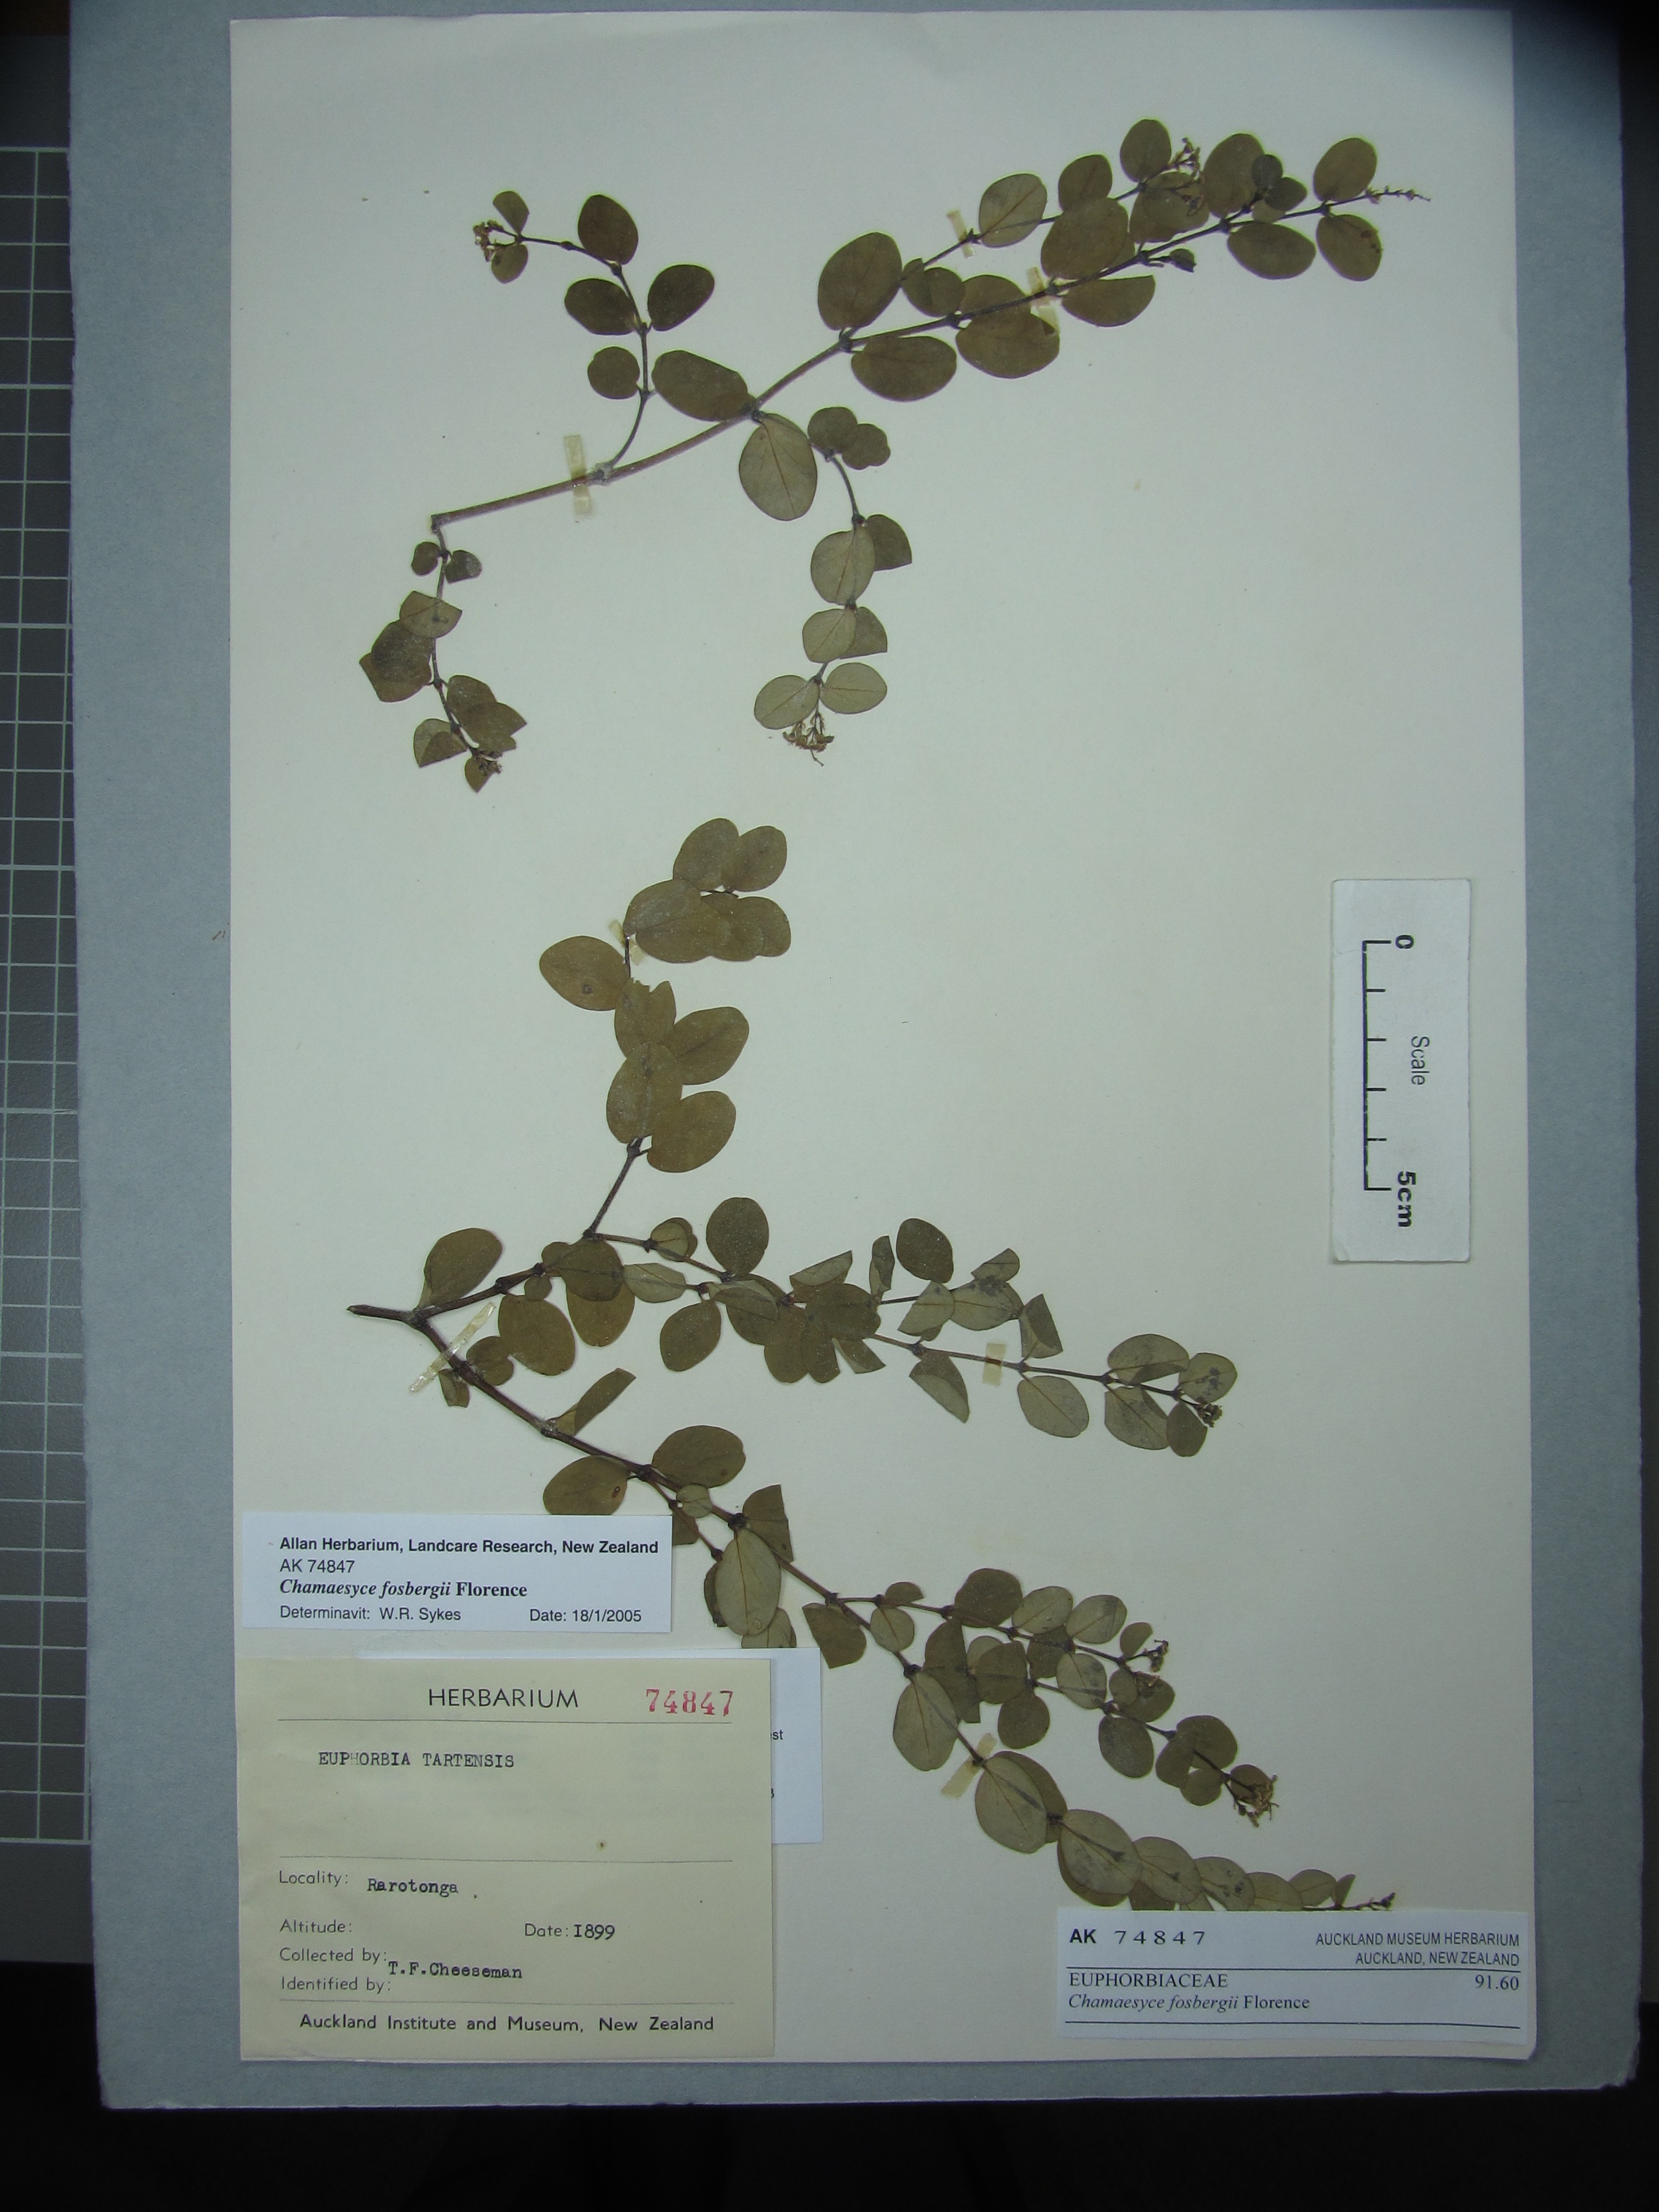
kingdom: Plantae
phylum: Tracheophyta
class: Magnoliopsida
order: Malpighiales
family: Euphorbiaceae
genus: Euphorbia
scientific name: Euphorbia fosbergii
